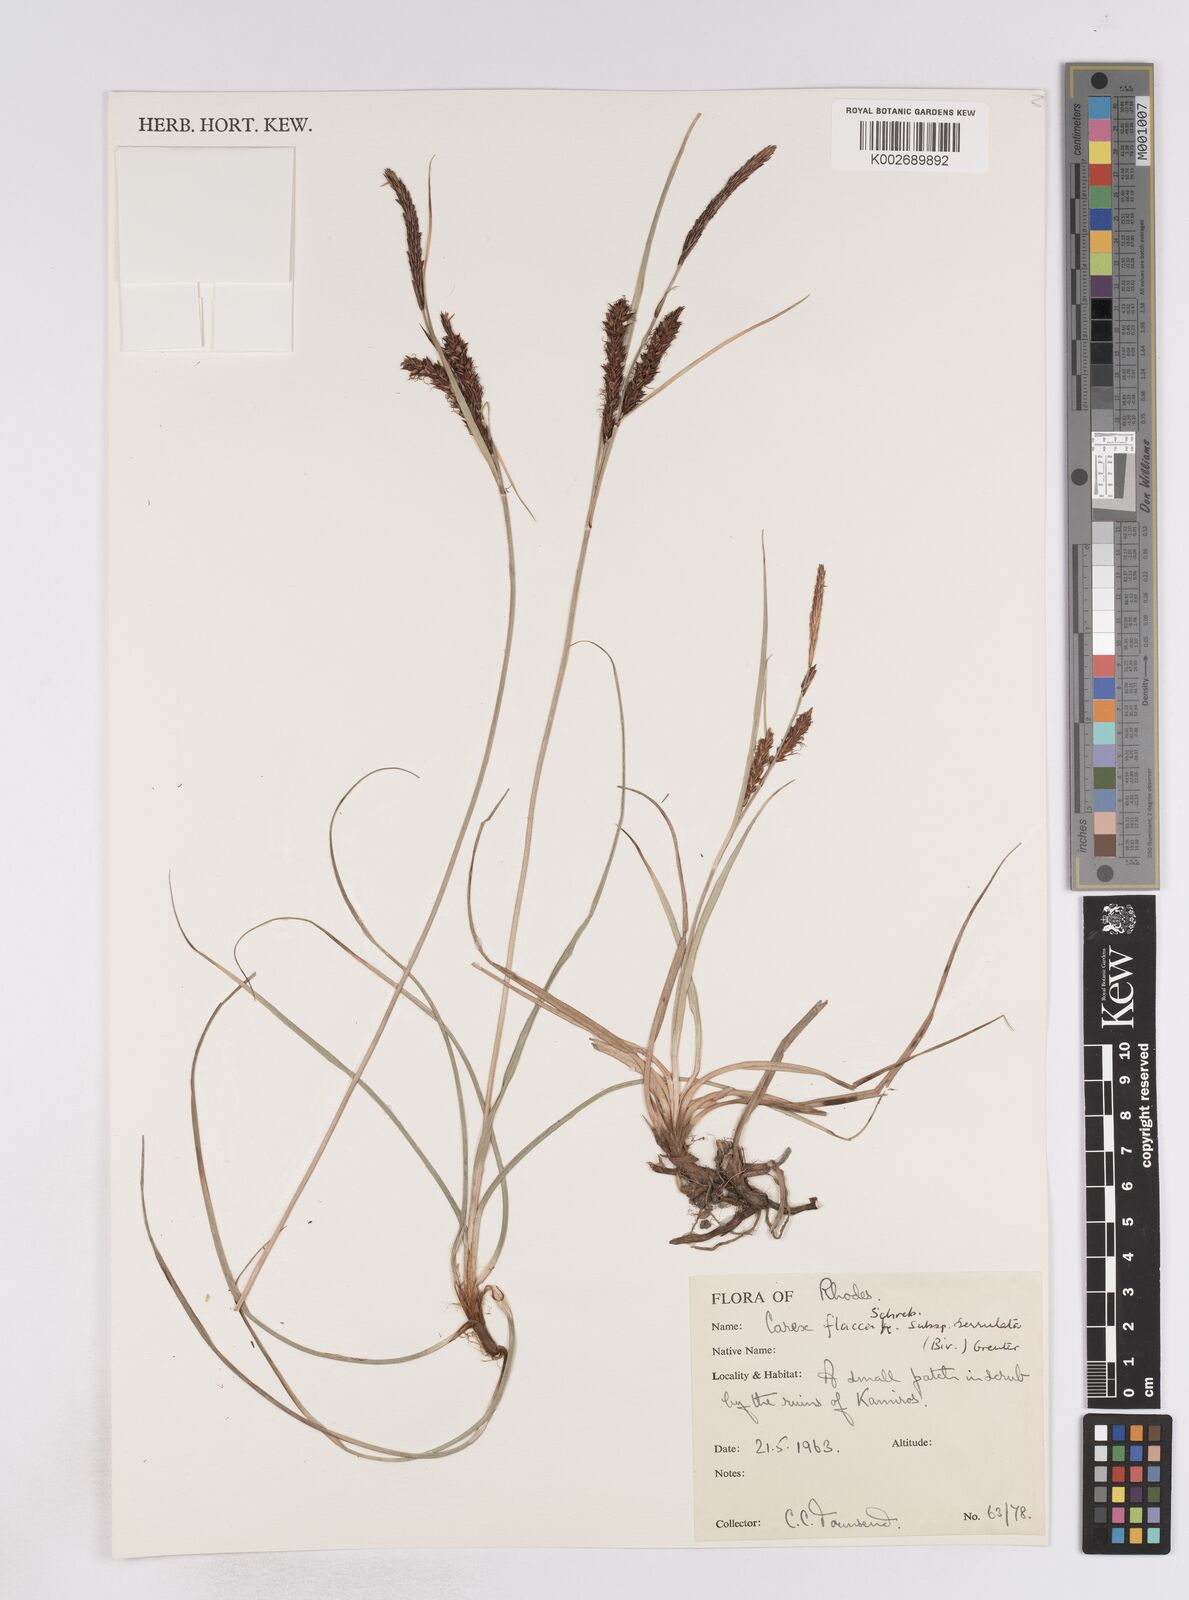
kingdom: Plantae
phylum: Tracheophyta
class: Liliopsida
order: Poales
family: Cyperaceae
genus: Carex
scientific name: Carex flacca
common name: Glaucous sedge
